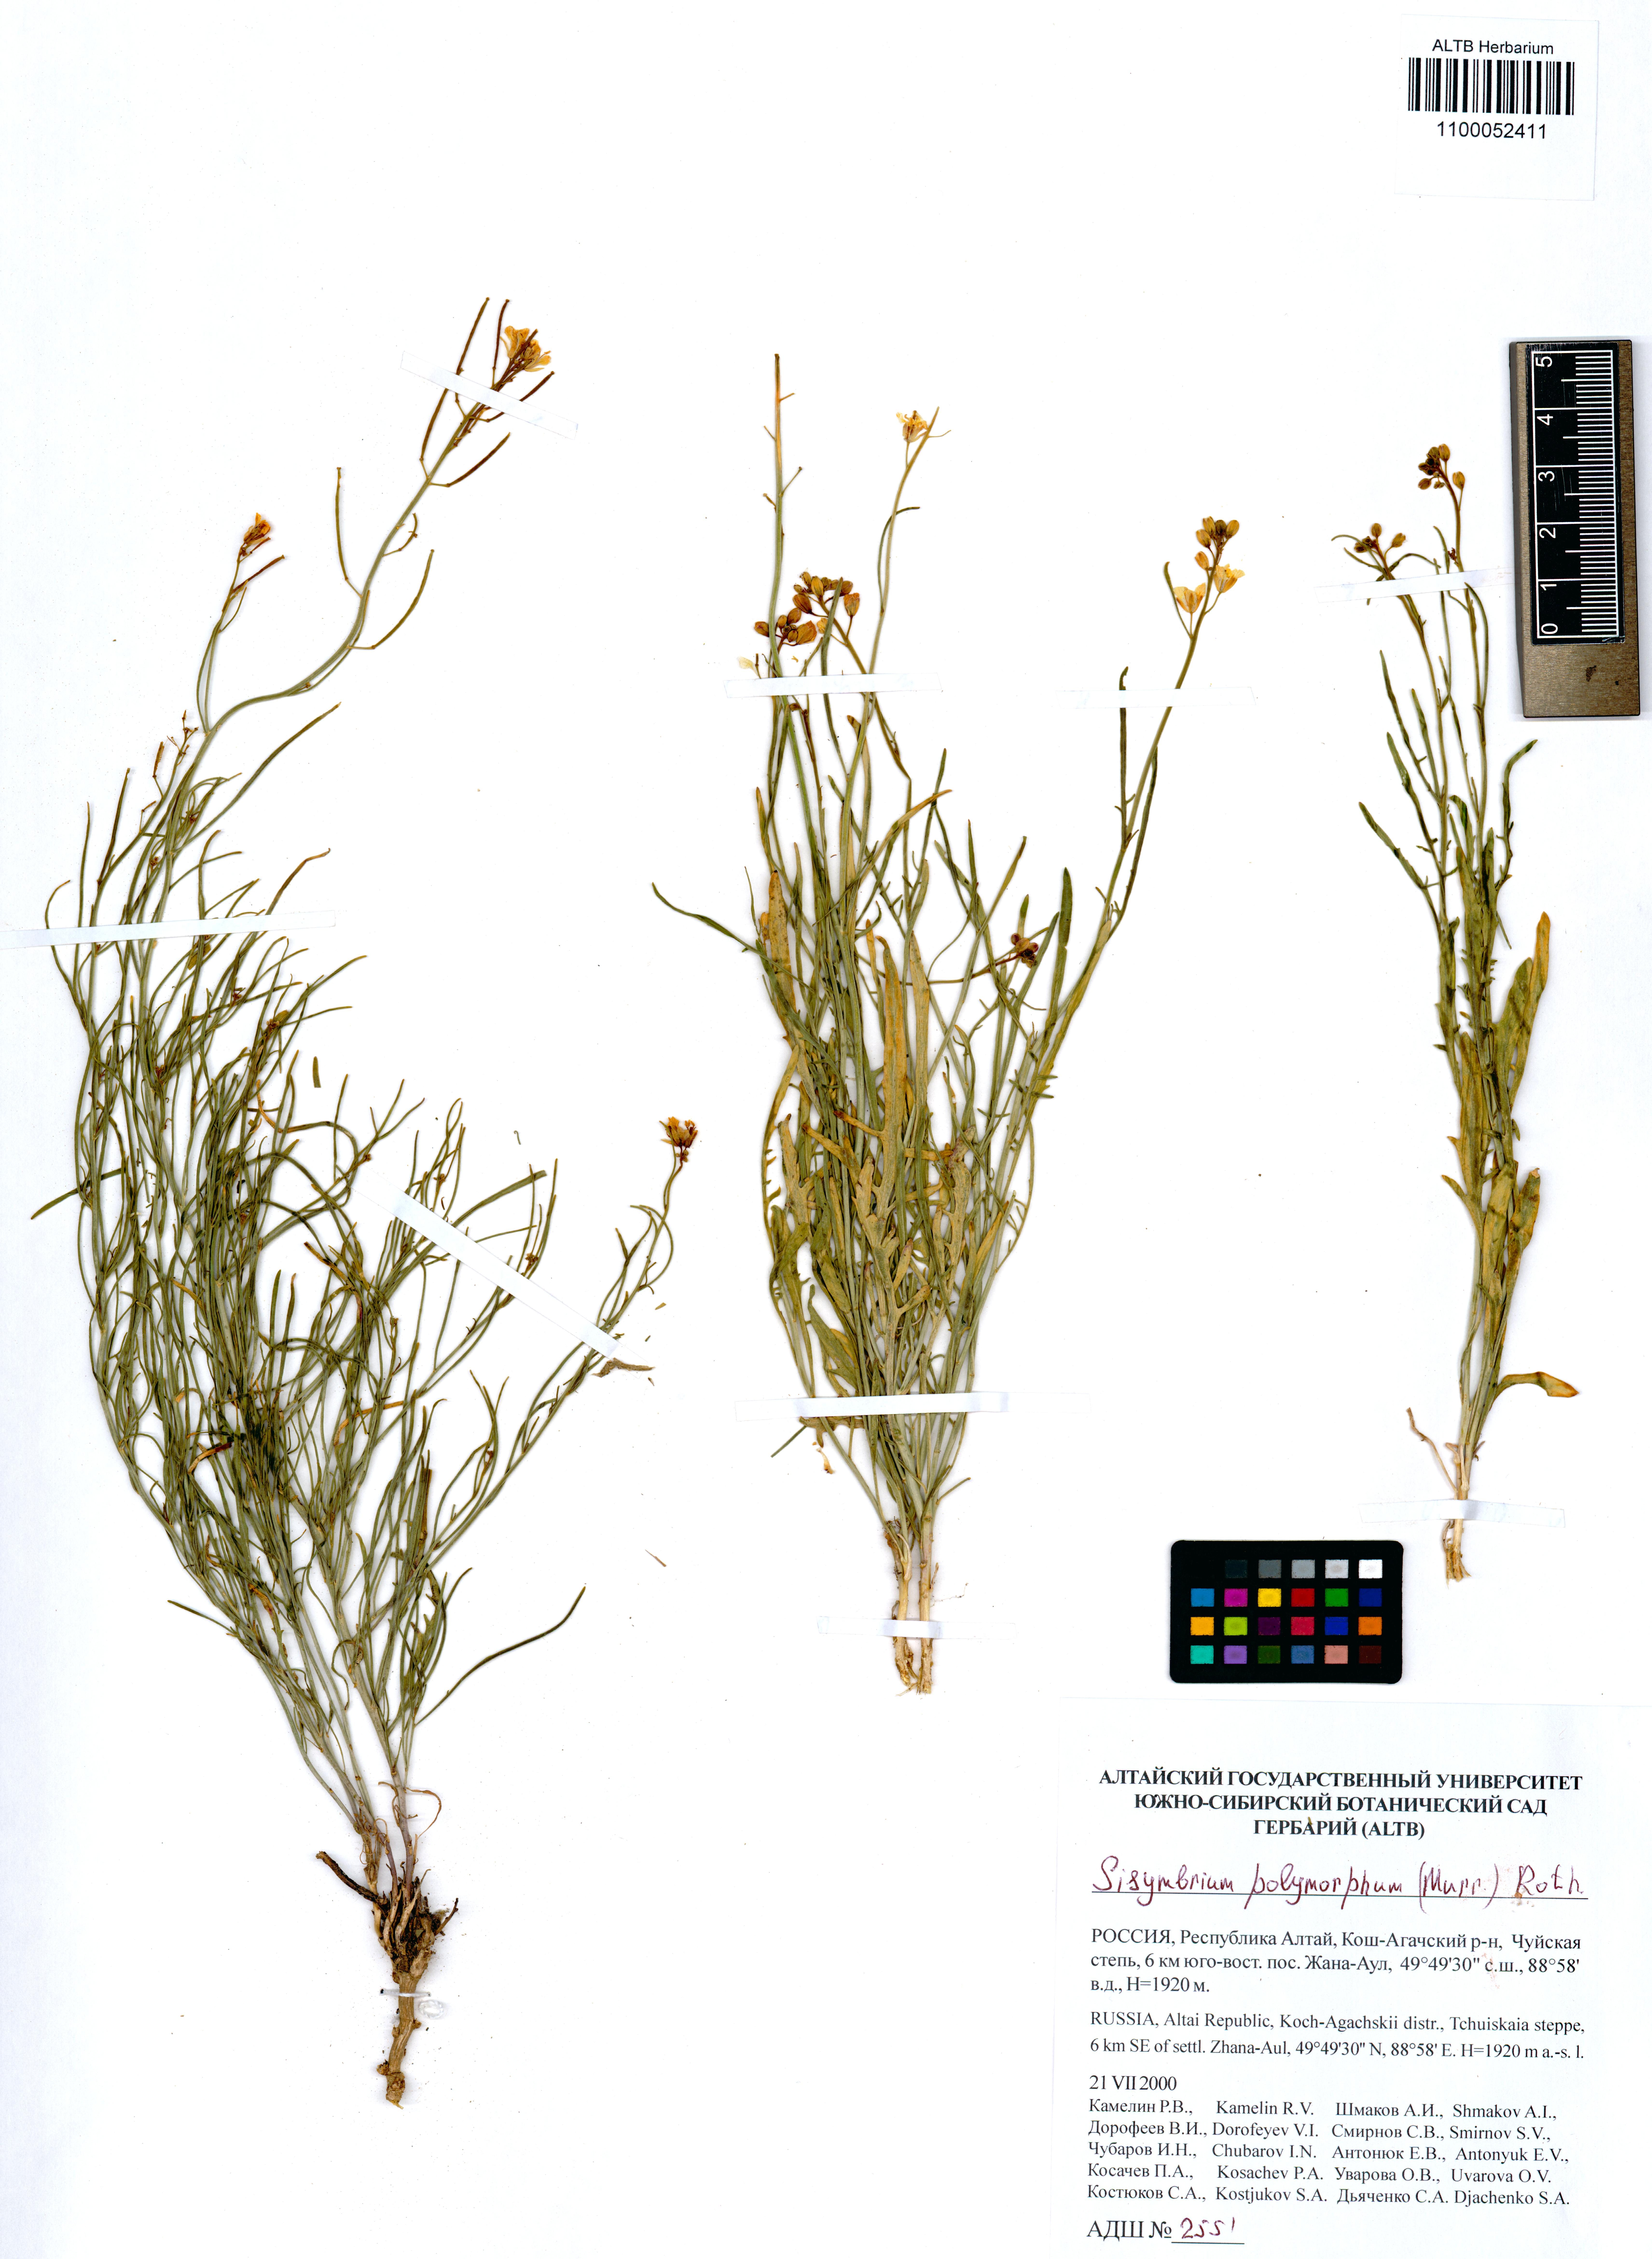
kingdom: Plantae
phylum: Tracheophyta
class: Magnoliopsida
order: Brassicales
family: Brassicaceae
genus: Sisymbrium
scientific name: Sisymbrium polymorphum
